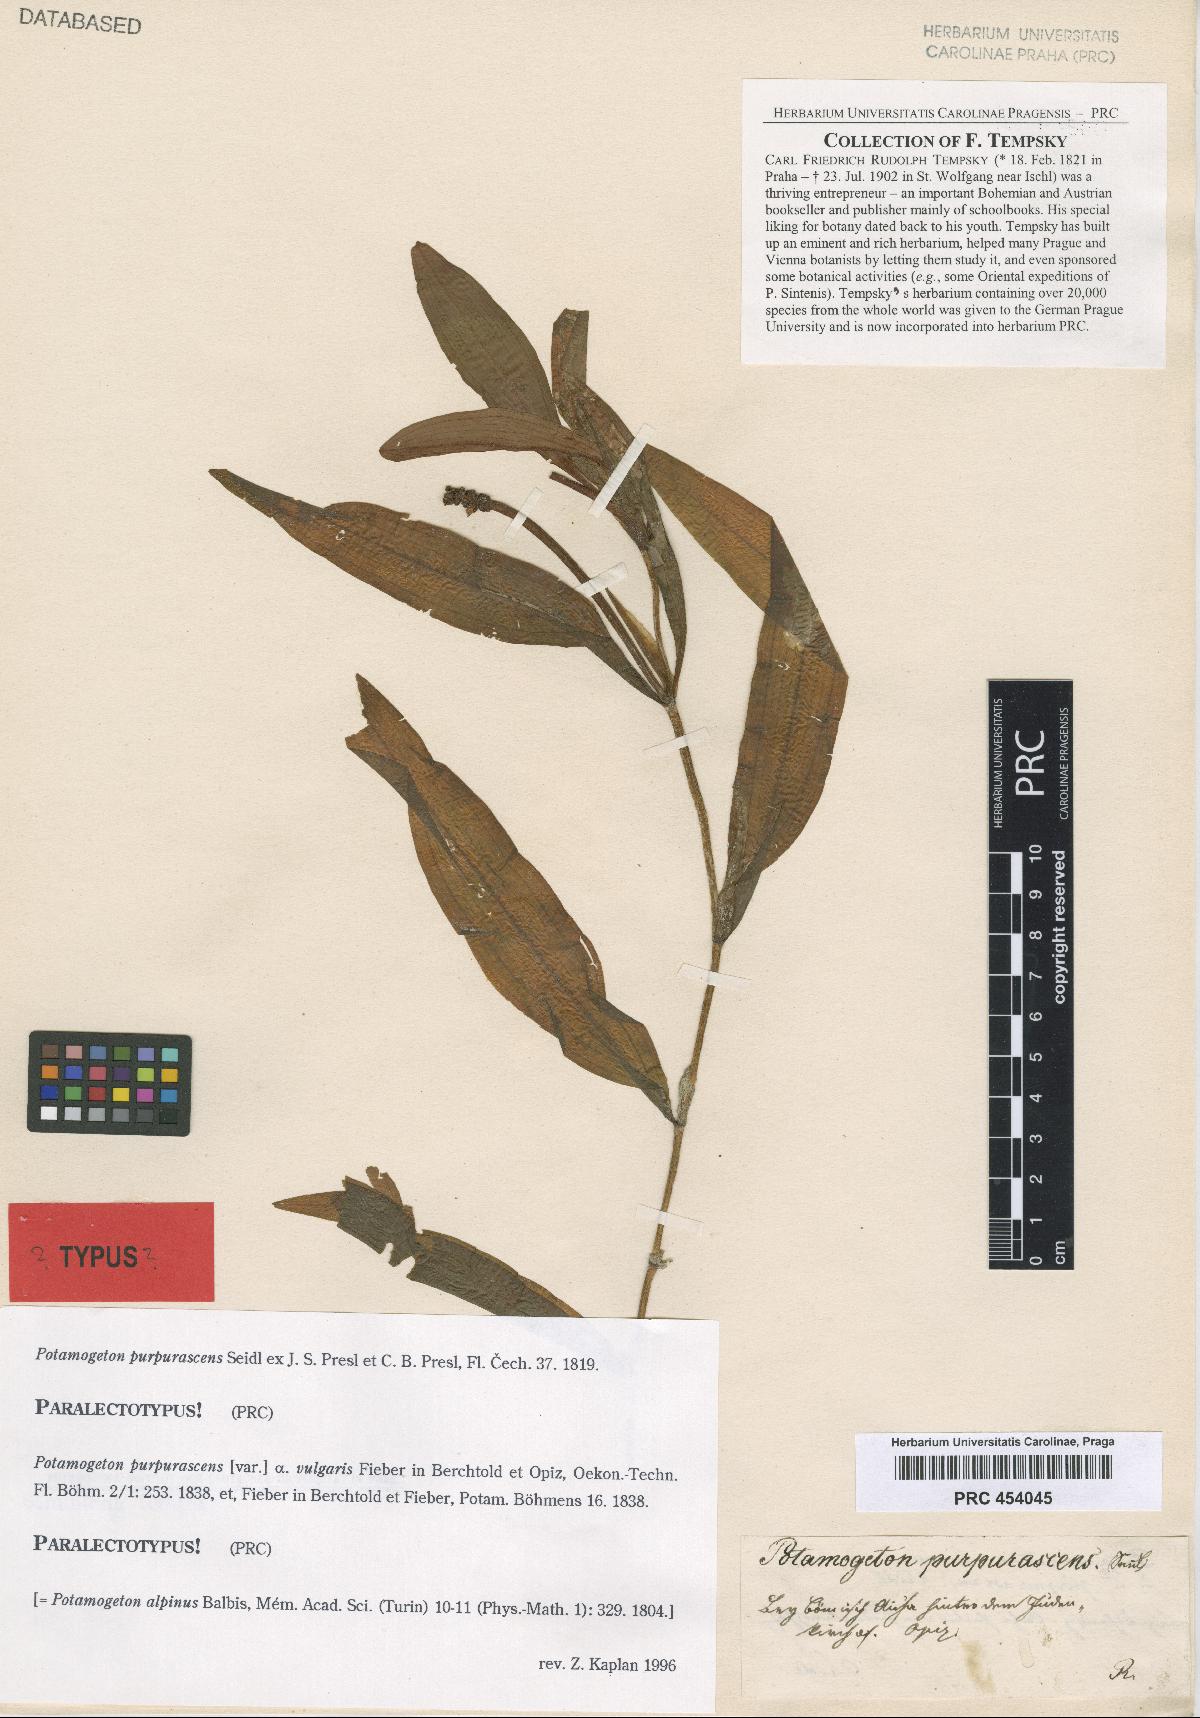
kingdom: Plantae
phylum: Tracheophyta
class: Liliopsida
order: Alismatales
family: Potamogetonaceae
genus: Potamogeton
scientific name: Potamogeton alpinus
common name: Red pondweed
